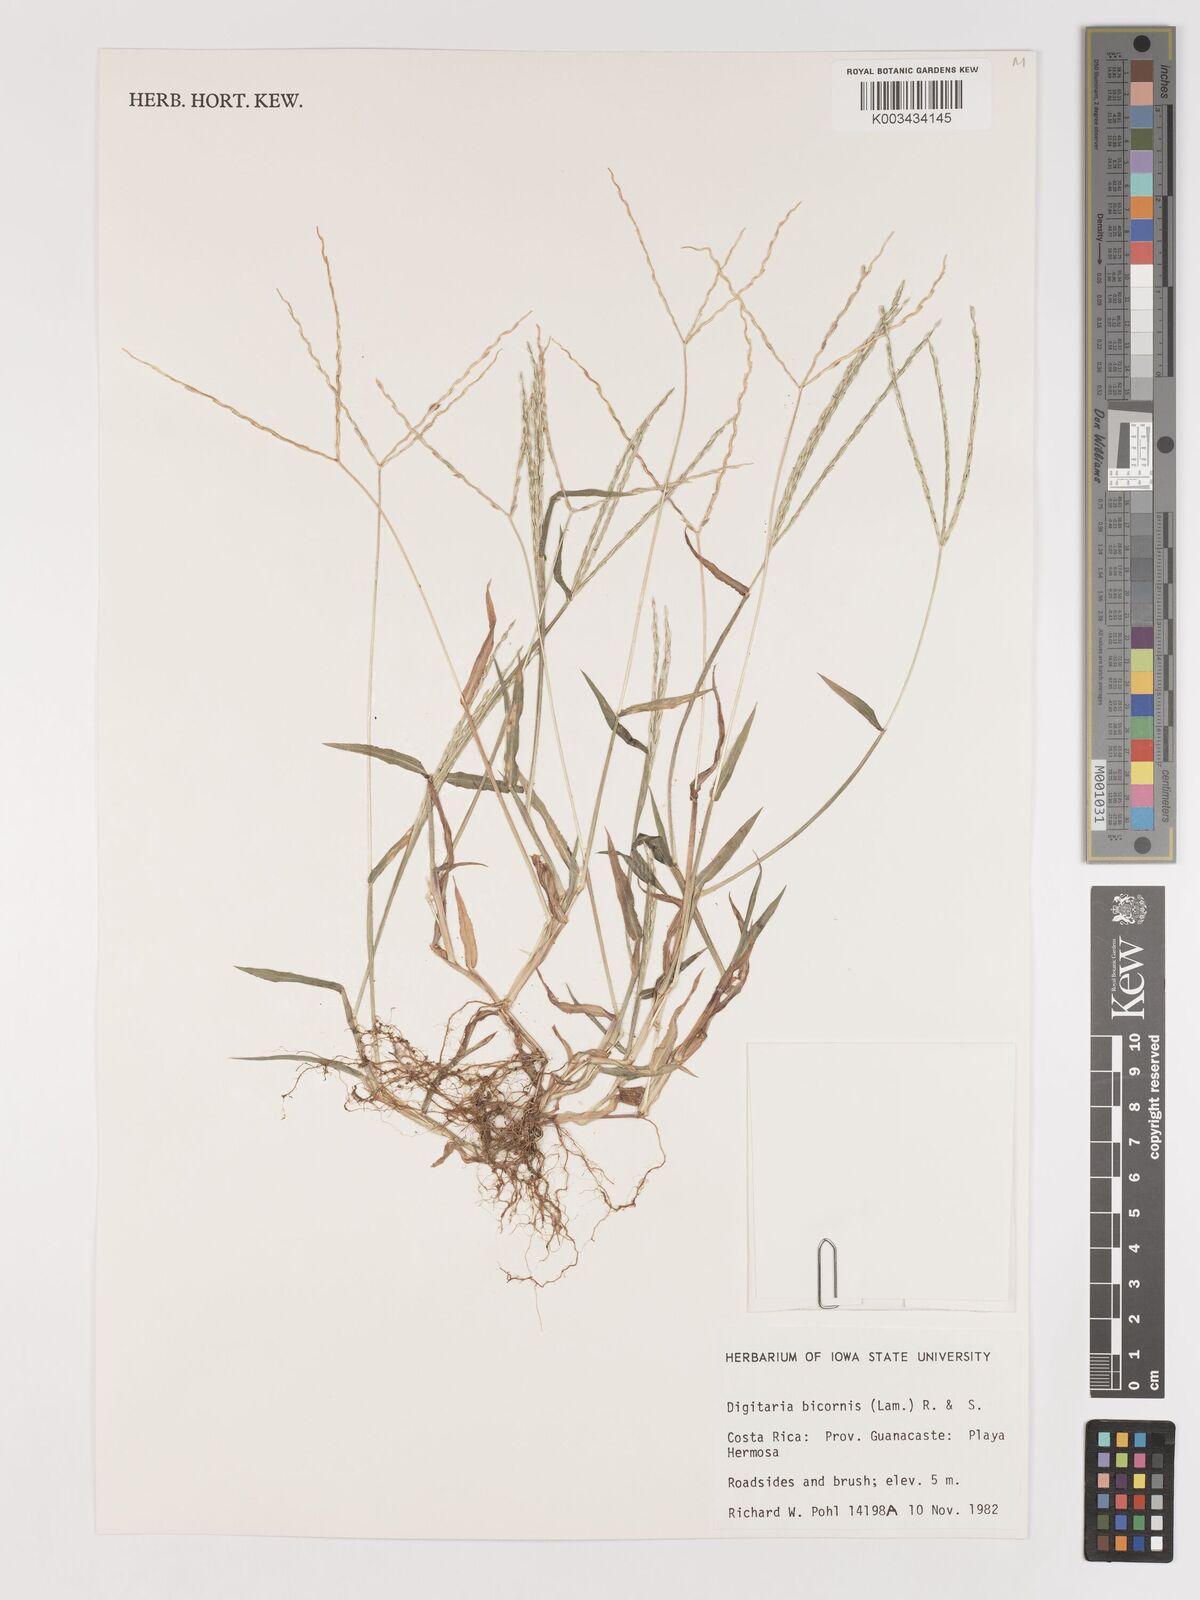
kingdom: Plantae
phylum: Tracheophyta
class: Liliopsida
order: Poales
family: Poaceae
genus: Digitaria
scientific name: Digitaria ciliaris
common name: Tropical finger-grass
